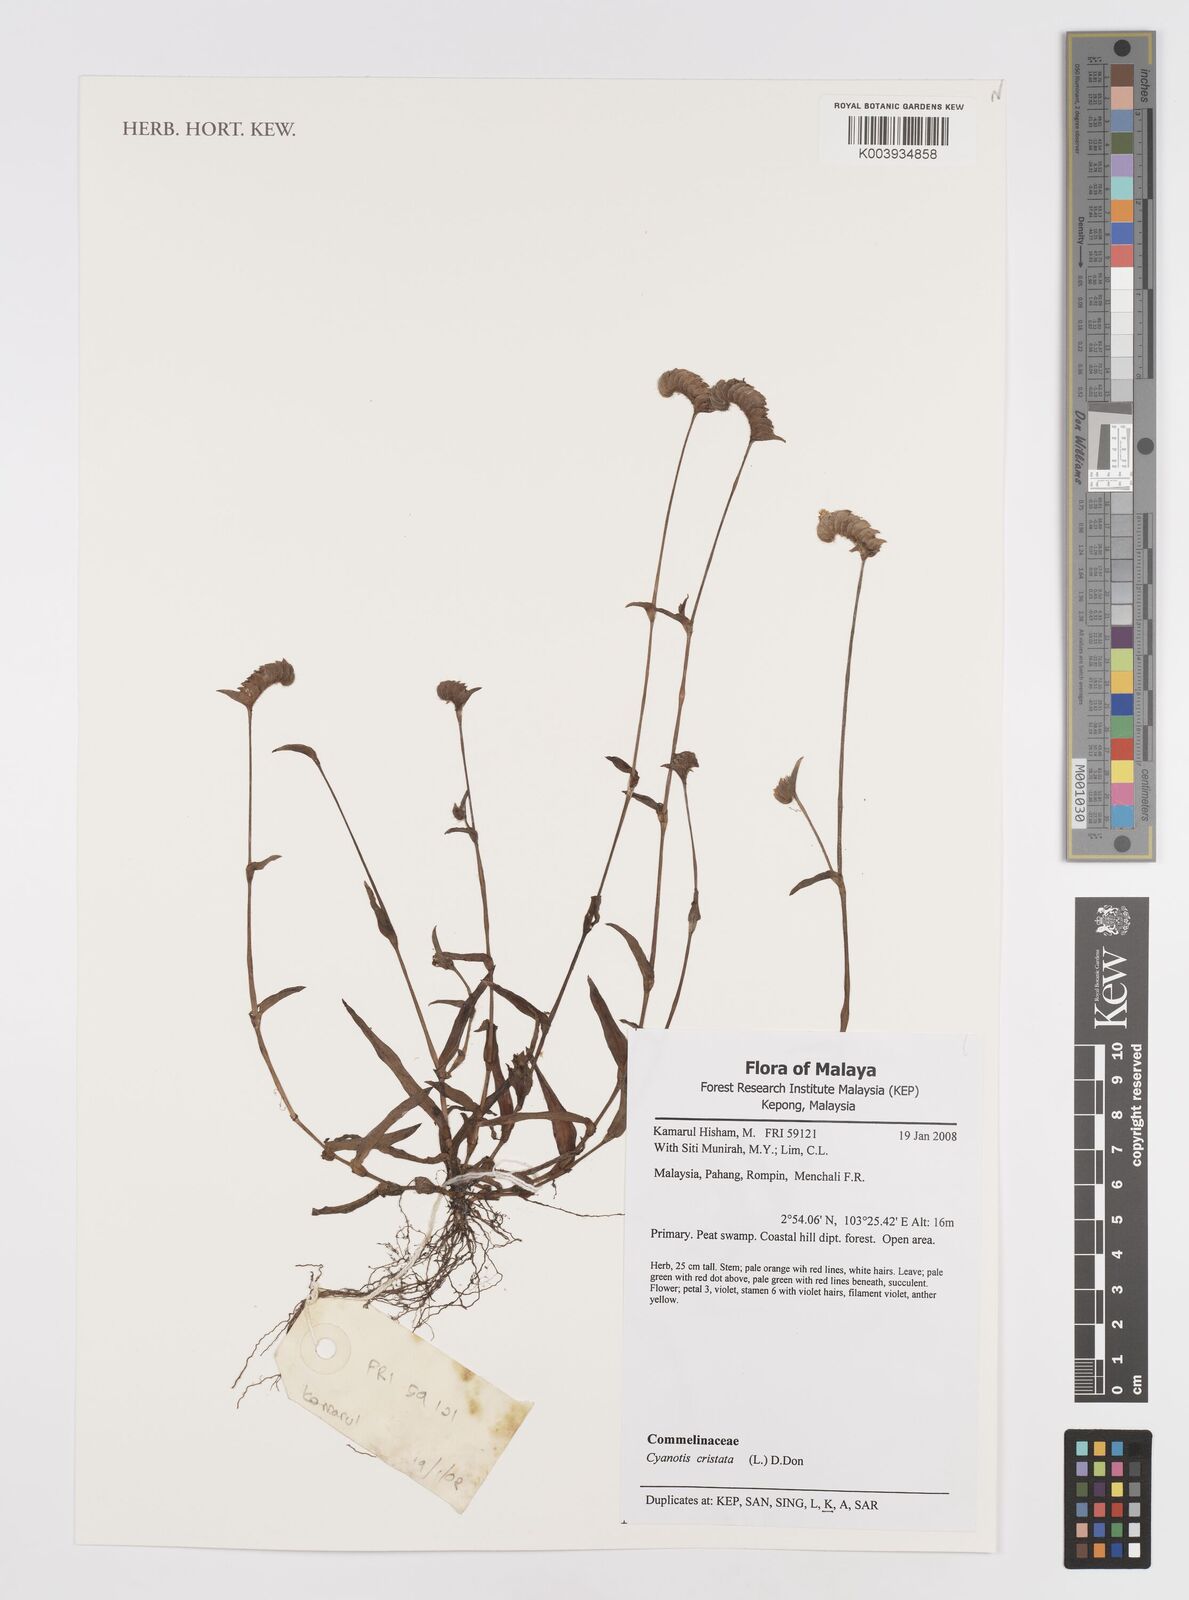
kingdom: Plantae
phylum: Tracheophyta
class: Liliopsida
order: Commelinales
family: Commelinaceae
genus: Cyanotis
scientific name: Cyanotis cristata
